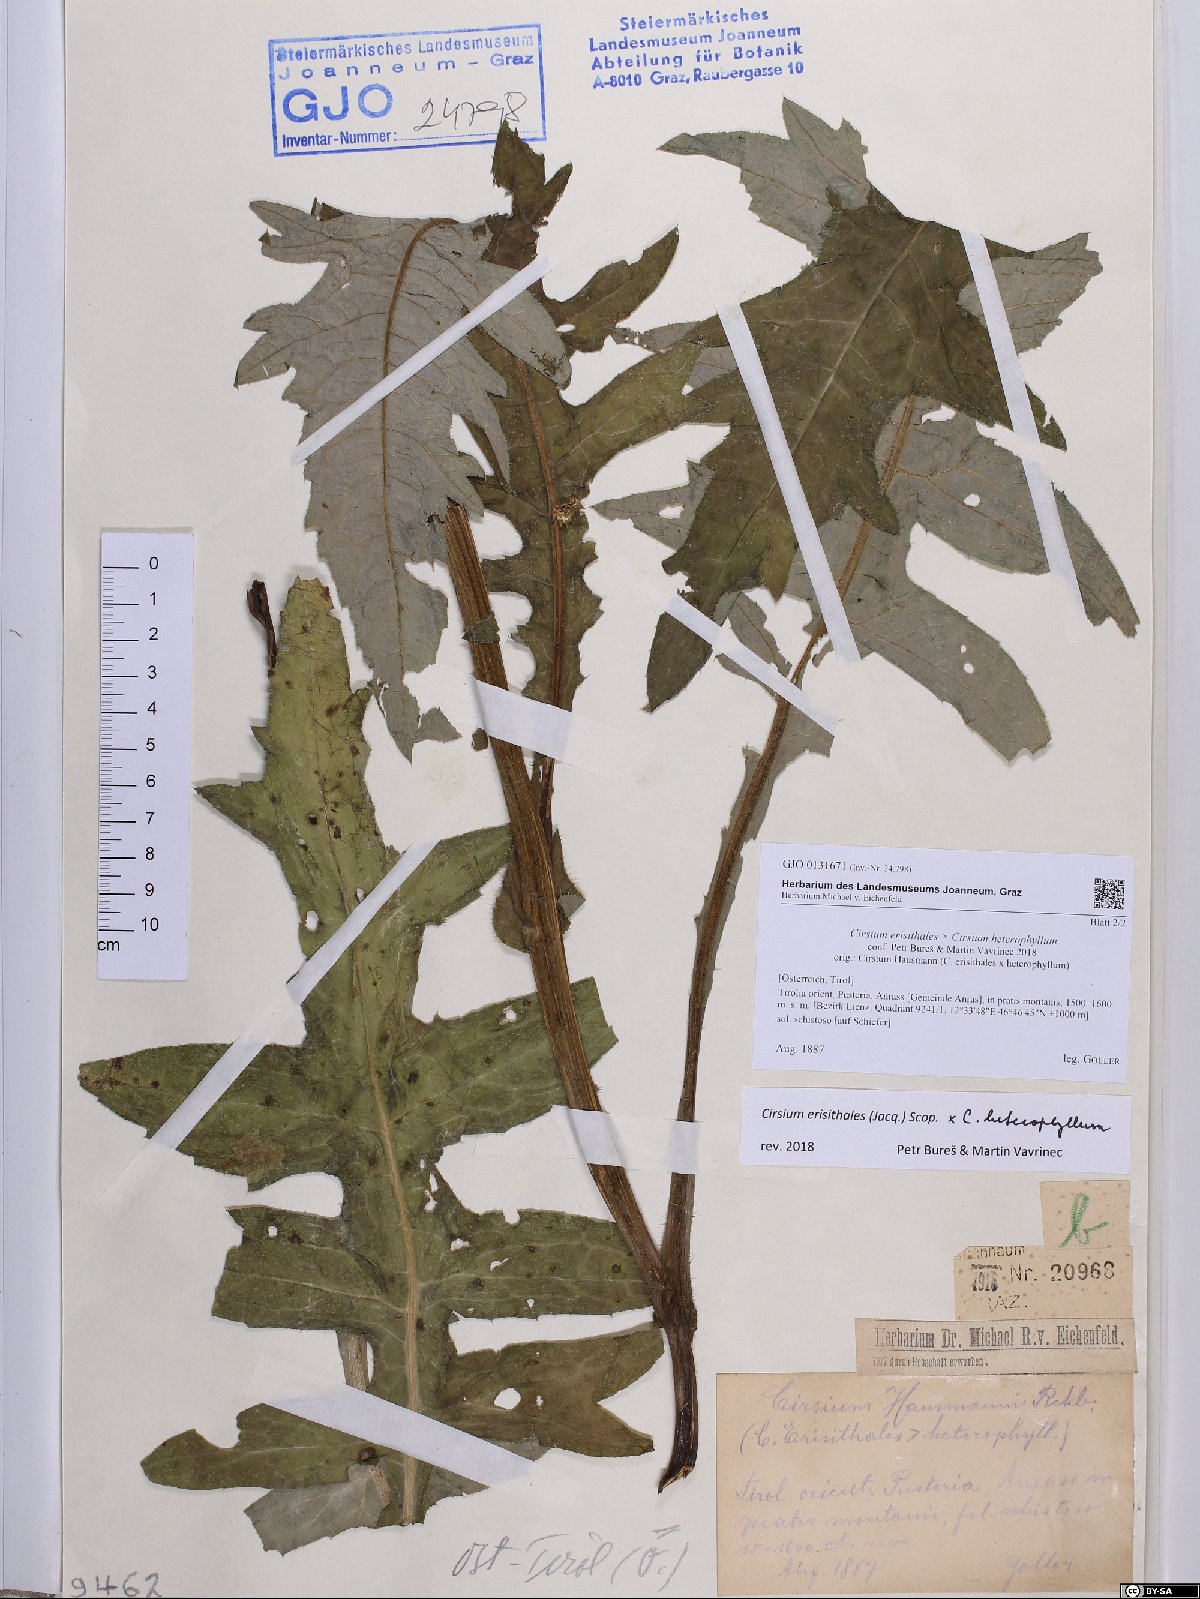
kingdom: Plantae
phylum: Tracheophyta
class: Magnoliopsida
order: Asterales
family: Asteraceae
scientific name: Asteraceae
